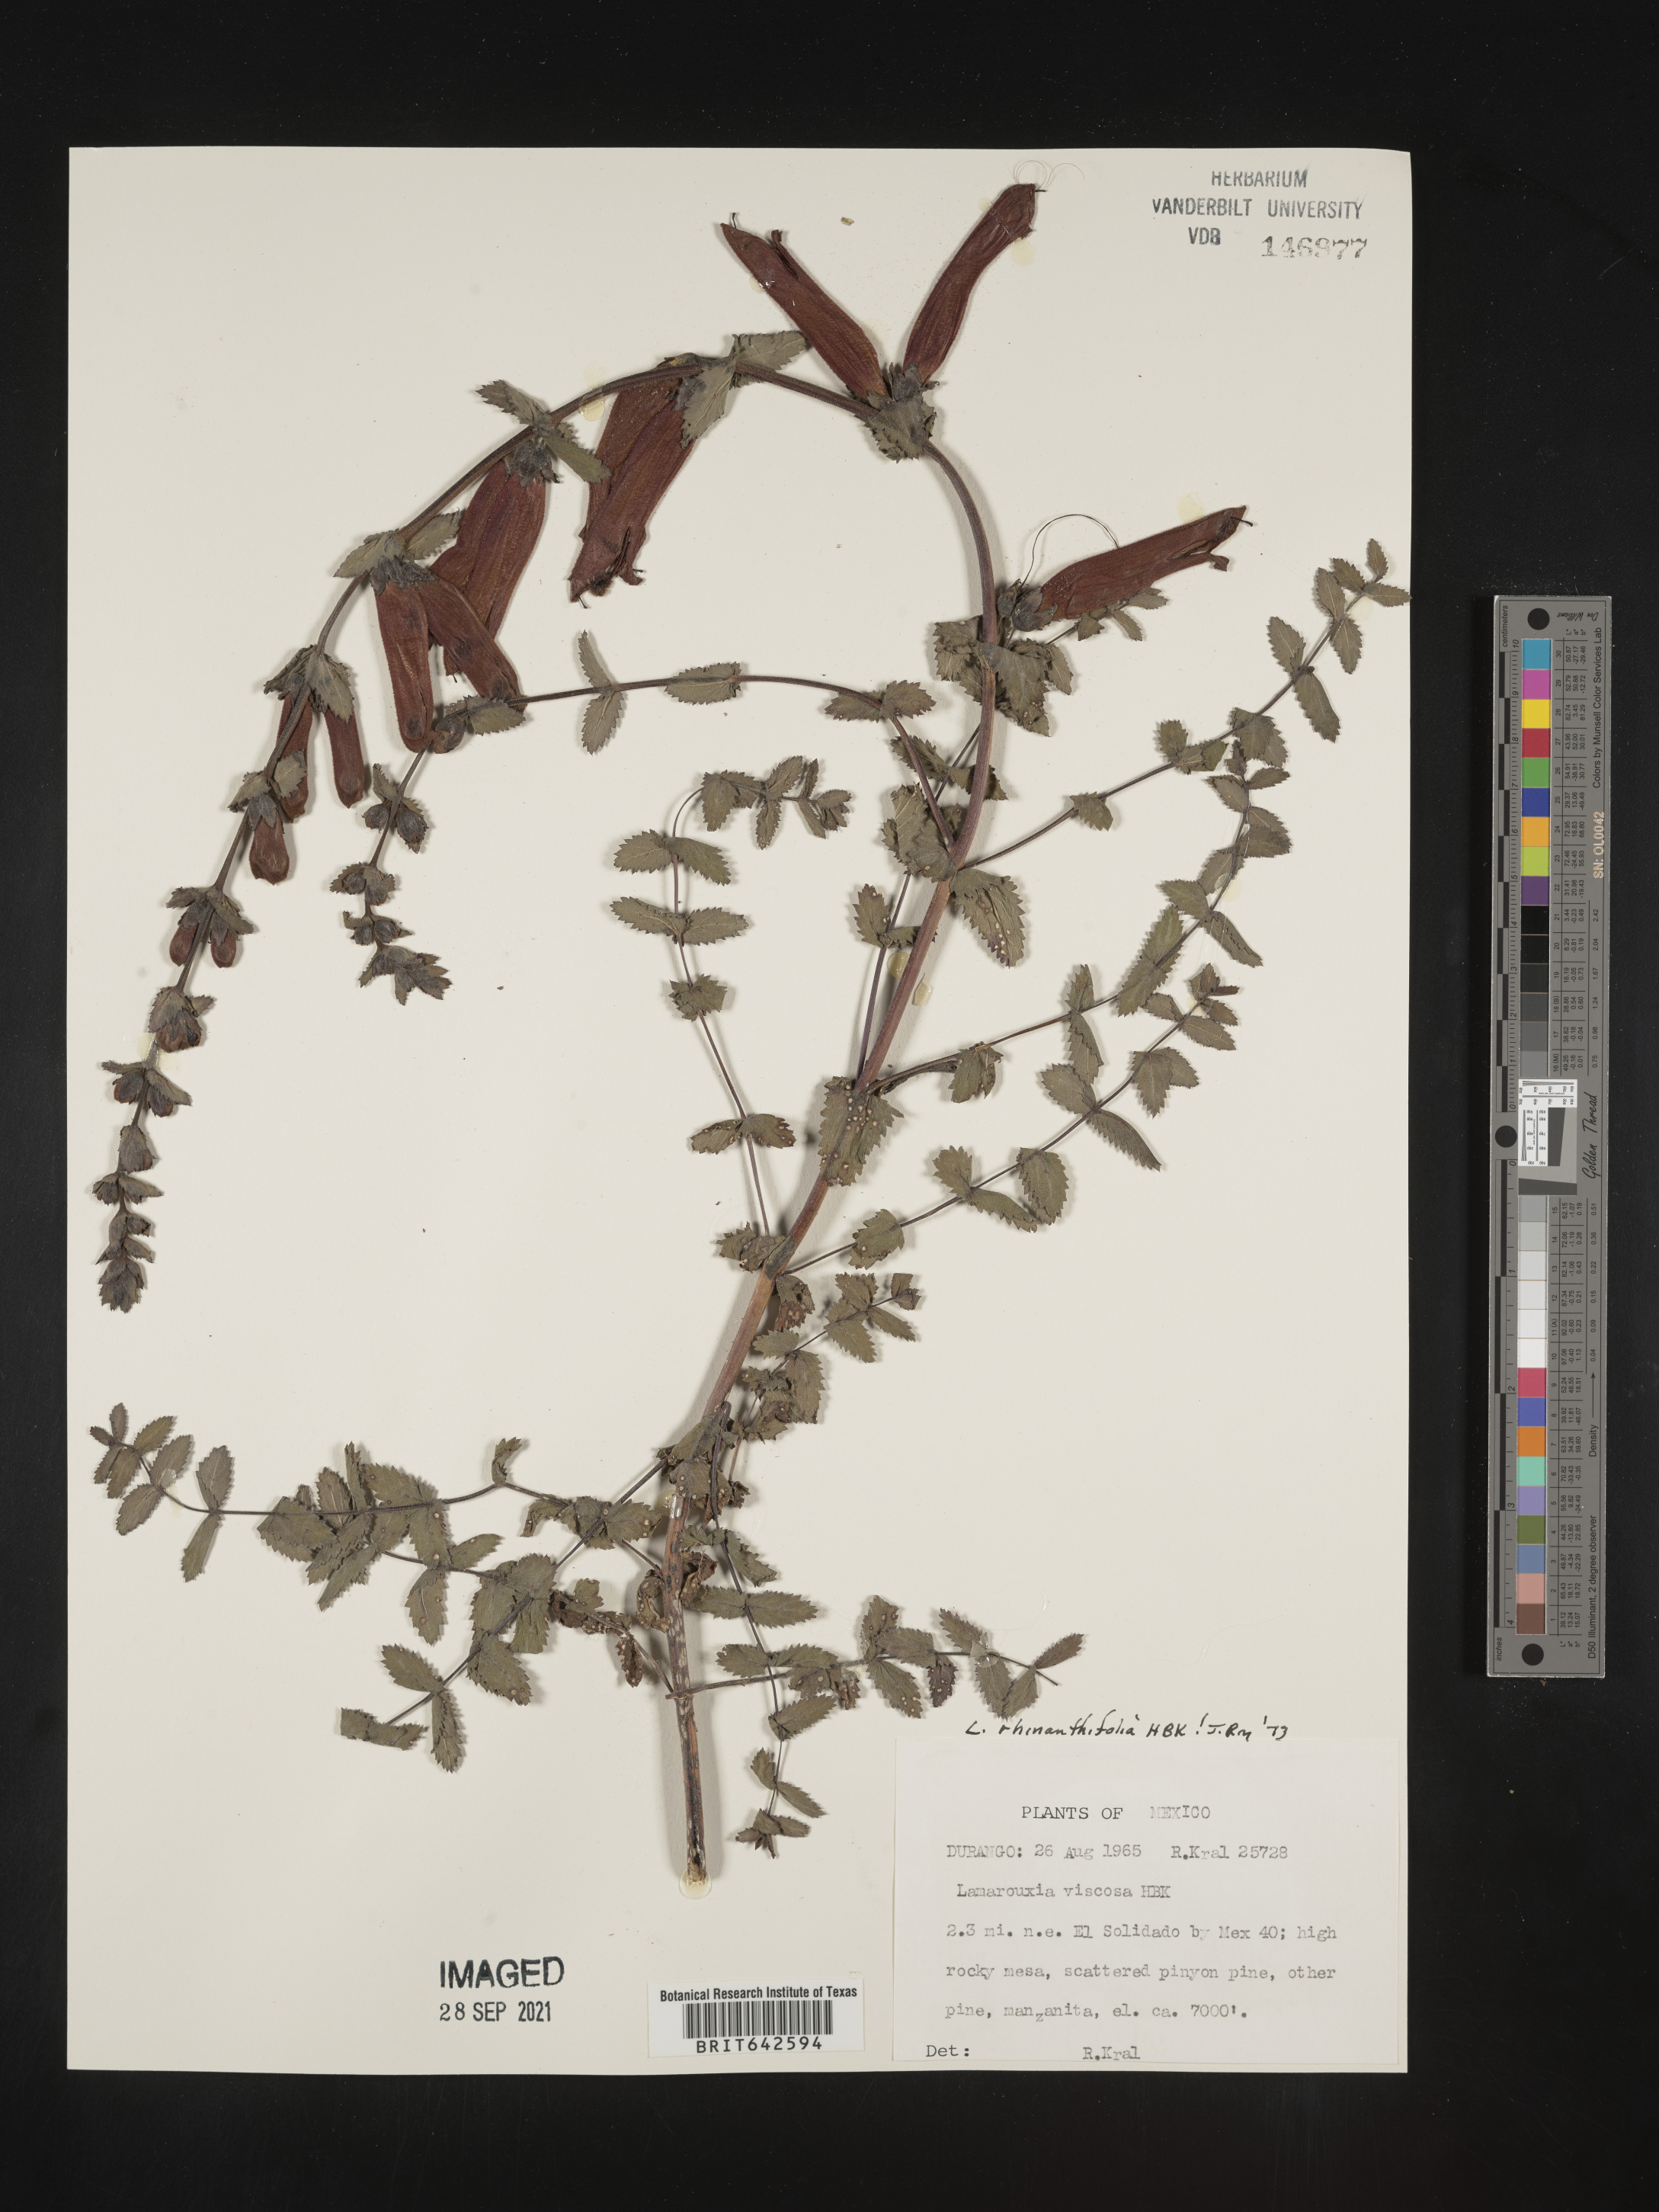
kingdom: Plantae
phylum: Tracheophyta
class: Magnoliopsida
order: Lamiales
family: Orobanchaceae
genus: Lamourouxia
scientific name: Lamourouxia
